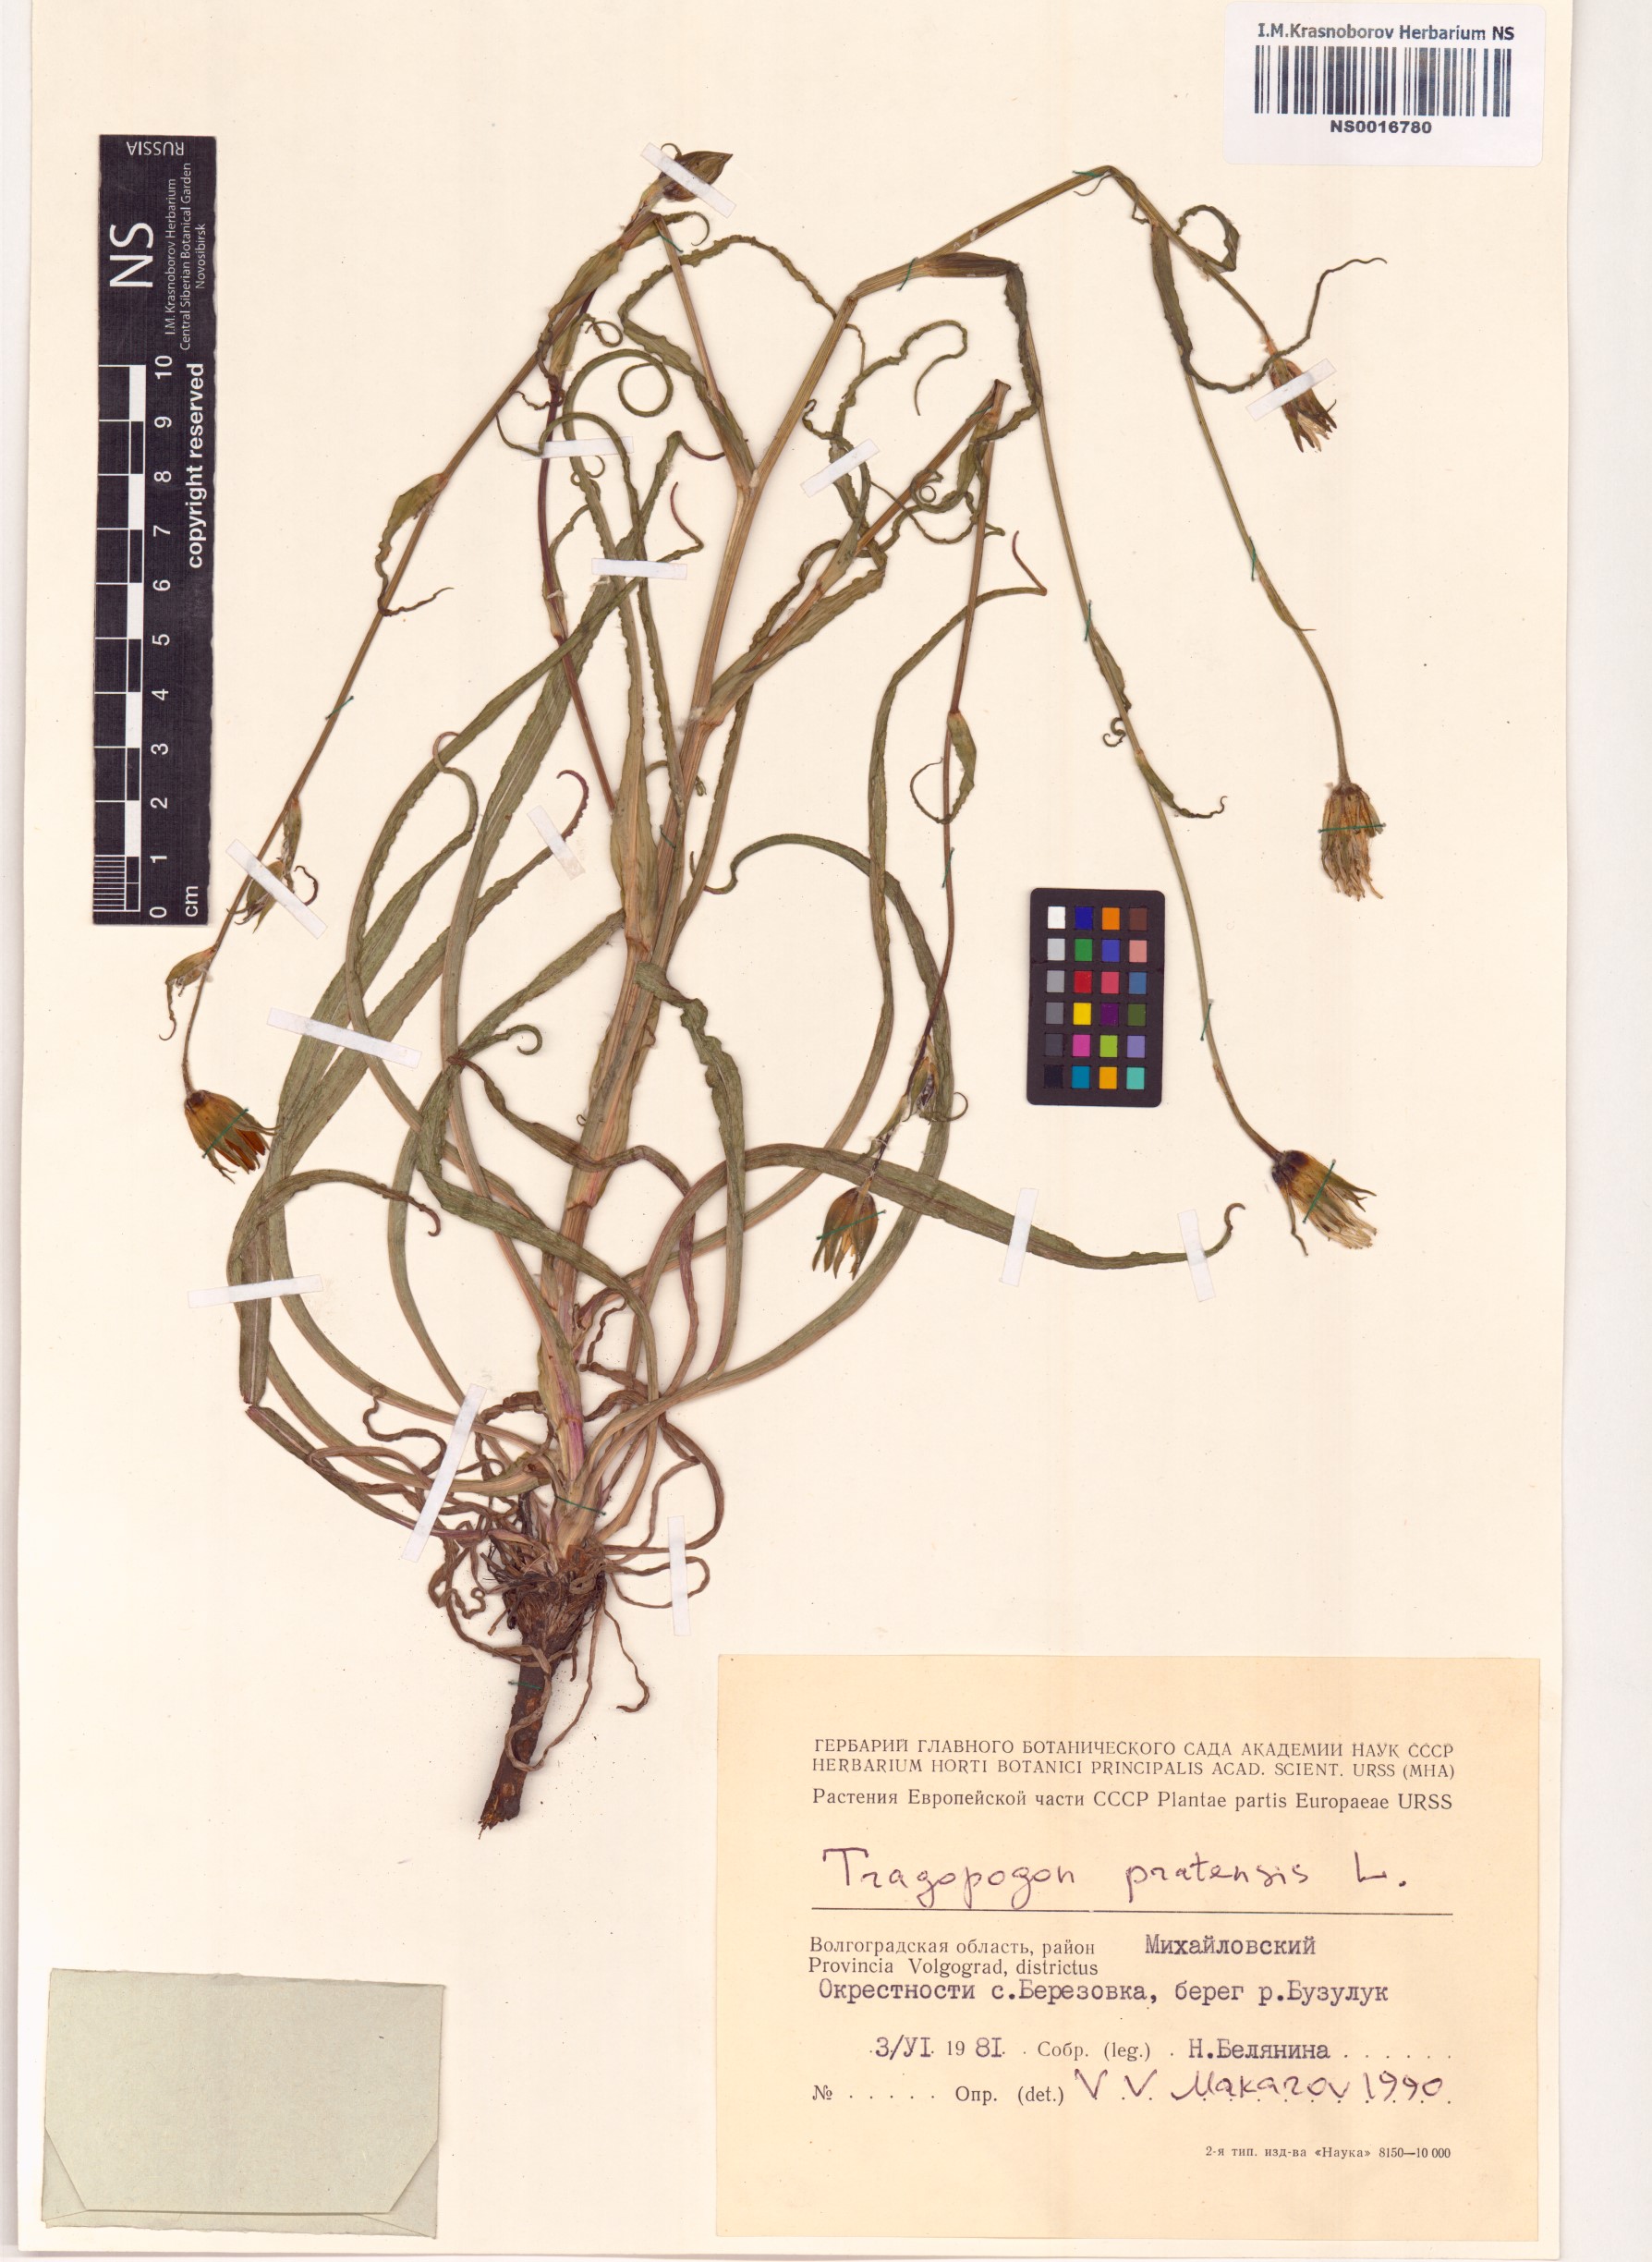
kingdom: Plantae
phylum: Tracheophyta
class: Magnoliopsida
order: Asterales
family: Asteraceae
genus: Tragopogon
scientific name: Tragopogon pratensis
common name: Goat's-beard
